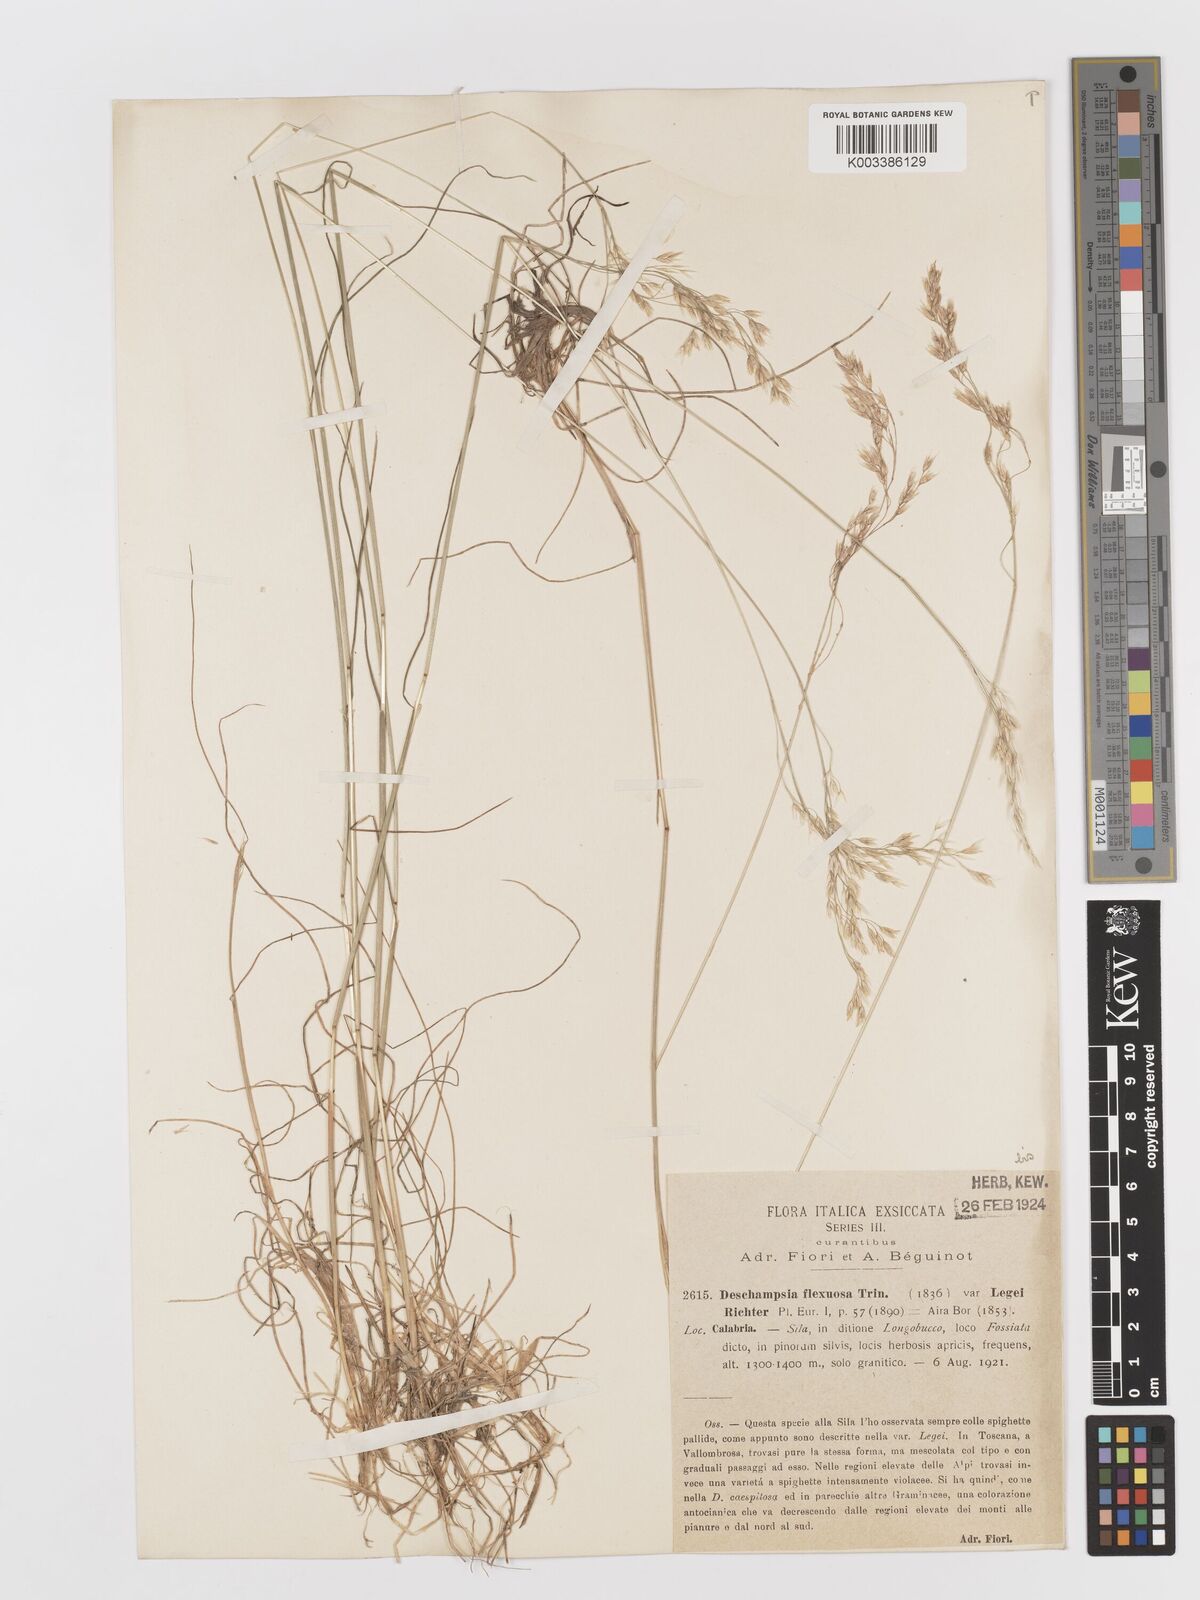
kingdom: Plantae
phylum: Tracheophyta
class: Liliopsida
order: Poales
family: Poaceae
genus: Avenella
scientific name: Avenella flexuosa
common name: Wavy hairgrass
